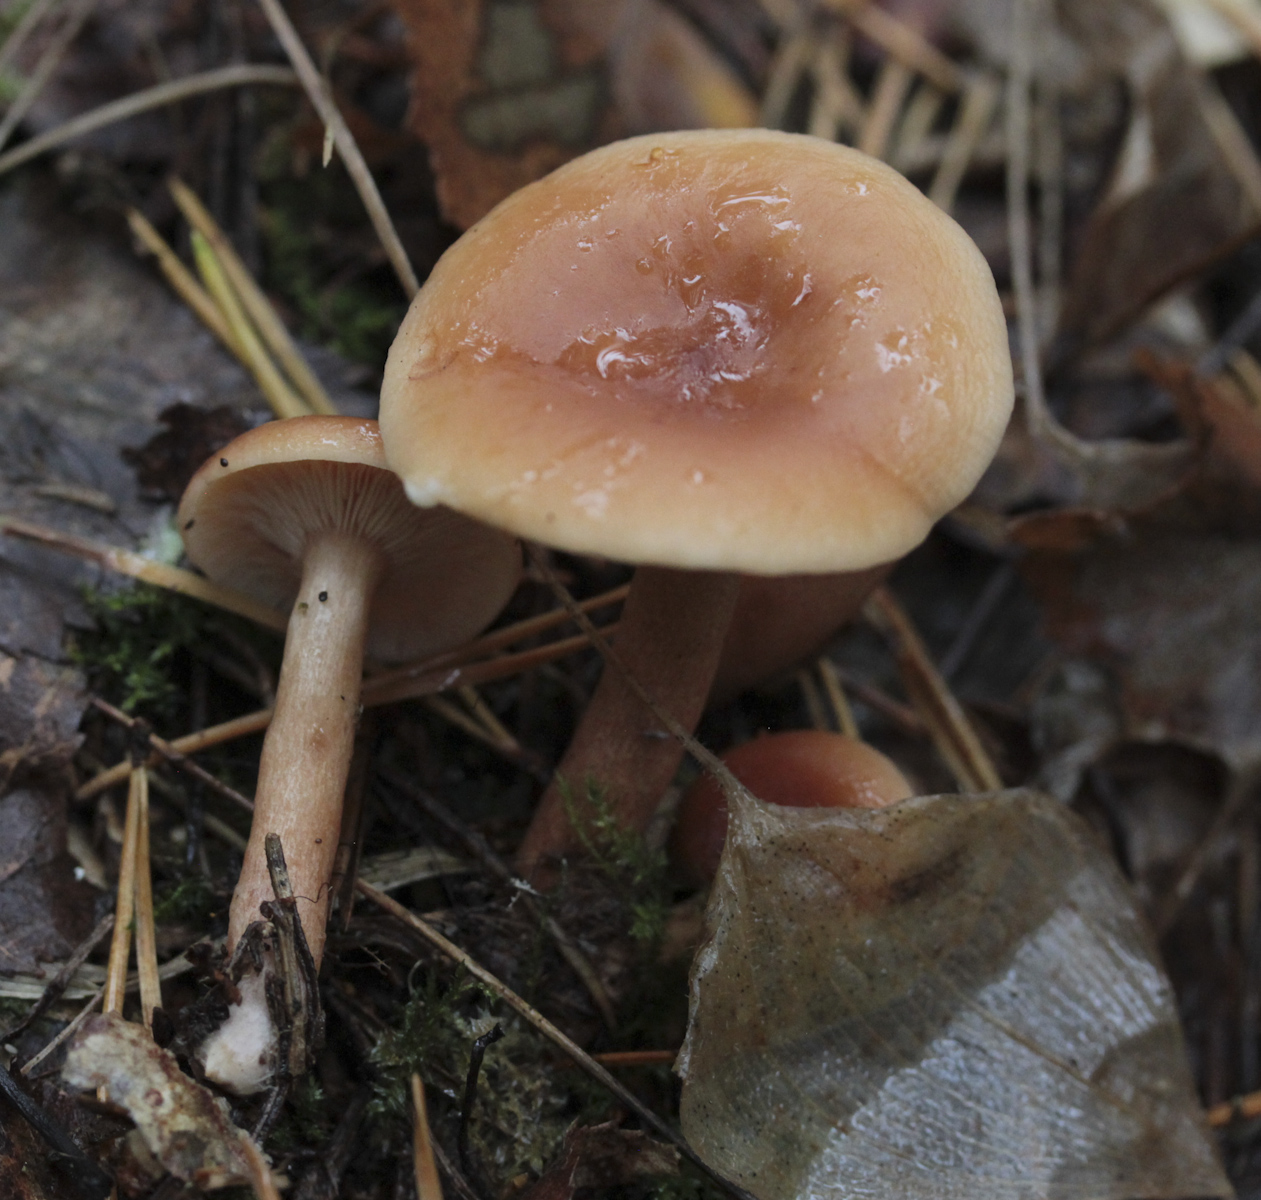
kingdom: Fungi
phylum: Basidiomycota
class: Agaricomycetes
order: Russulales
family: Russulaceae
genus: Lactarius
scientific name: Lactarius tabidus
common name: Birch milkcap
